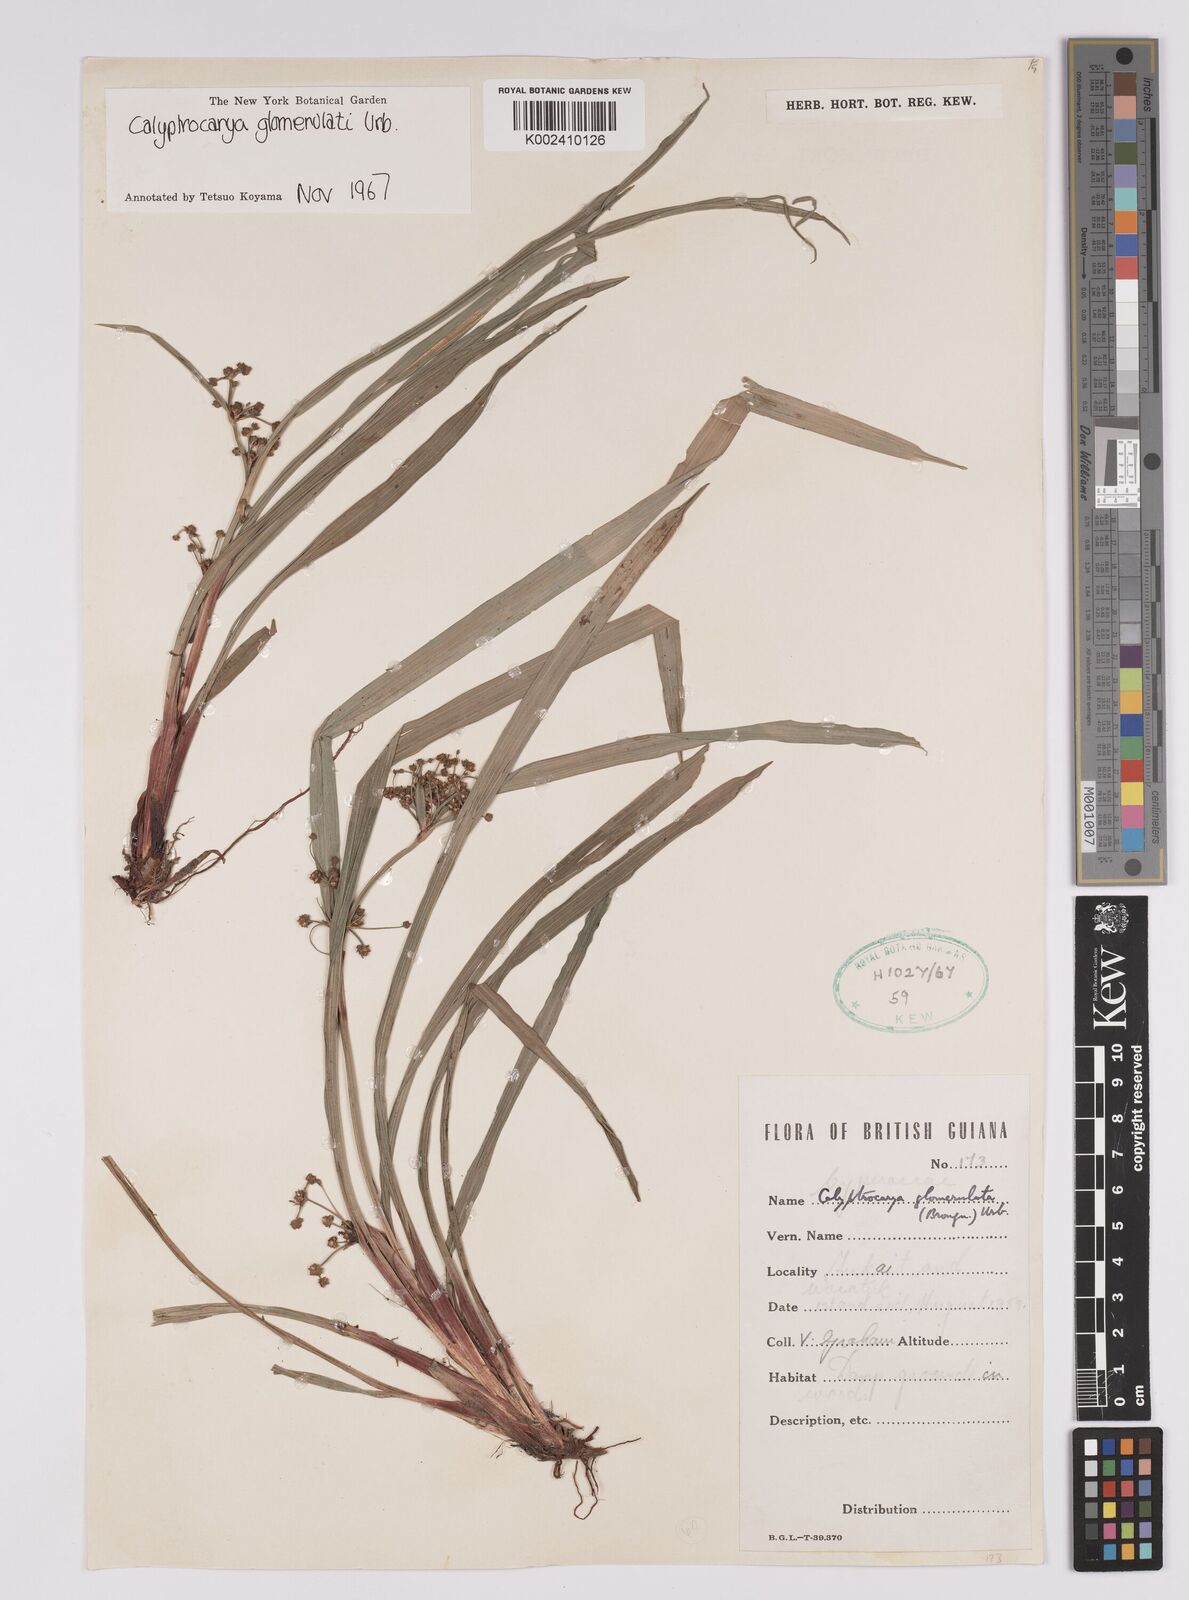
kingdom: Plantae
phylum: Tracheophyta
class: Liliopsida
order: Poales
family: Cyperaceae
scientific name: Cyperaceae
